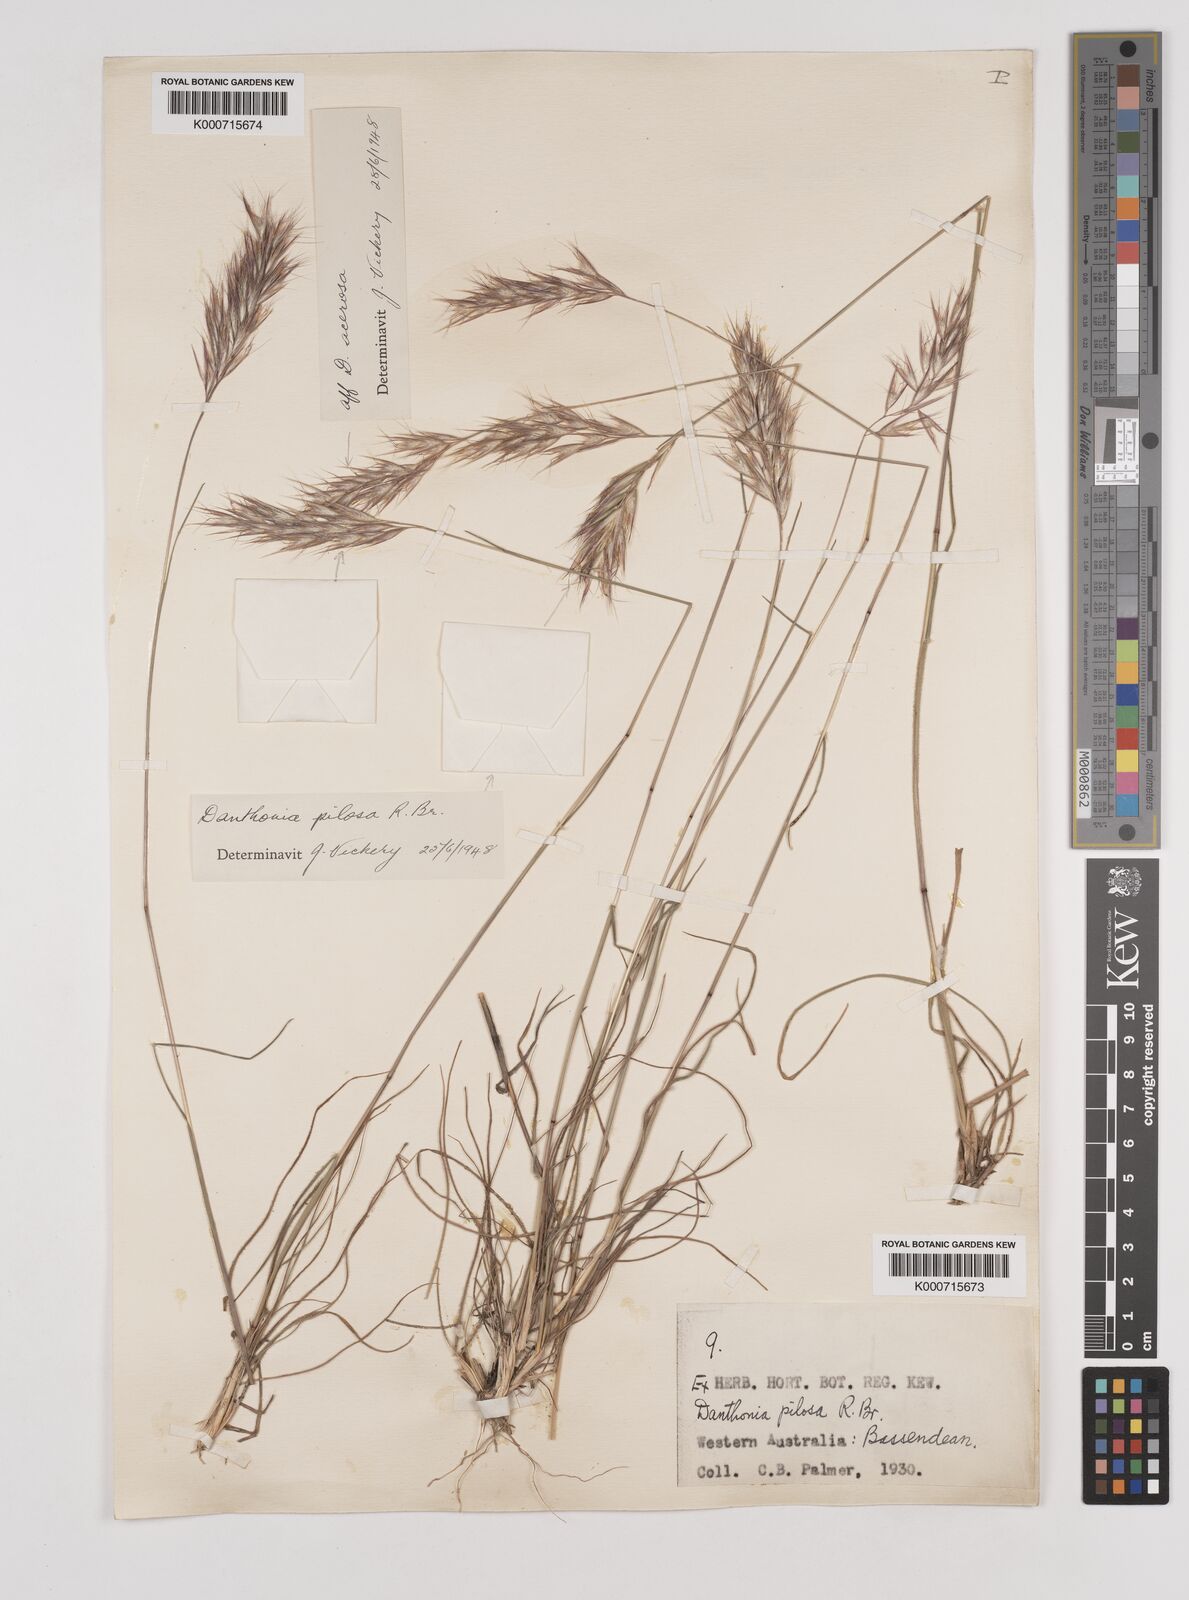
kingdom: Plantae
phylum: Tracheophyta
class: Liliopsida
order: Poales
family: Poaceae
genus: Rytidosperma
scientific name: Rytidosperma acerosum
